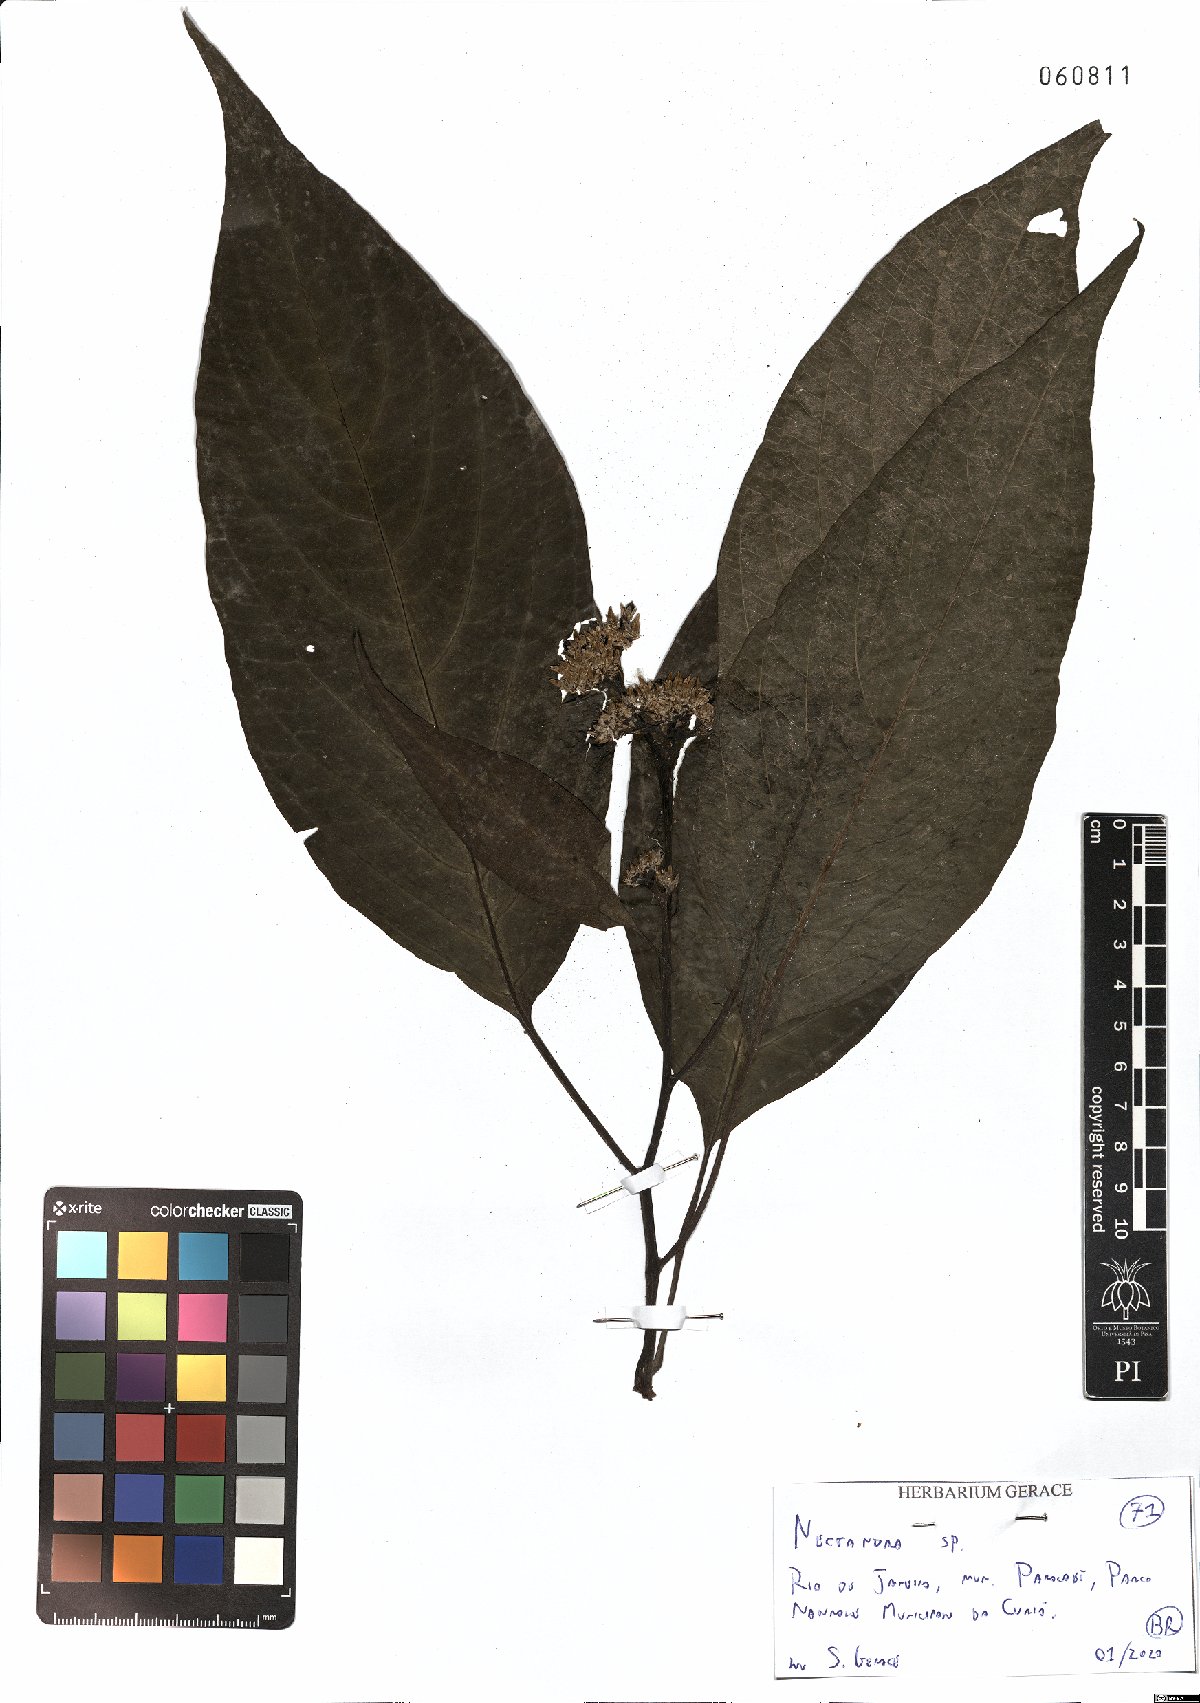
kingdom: Plantae
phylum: Tracheophyta
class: Magnoliopsida
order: Laurales
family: Lauraceae
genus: Nectandra
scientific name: Nectandra
